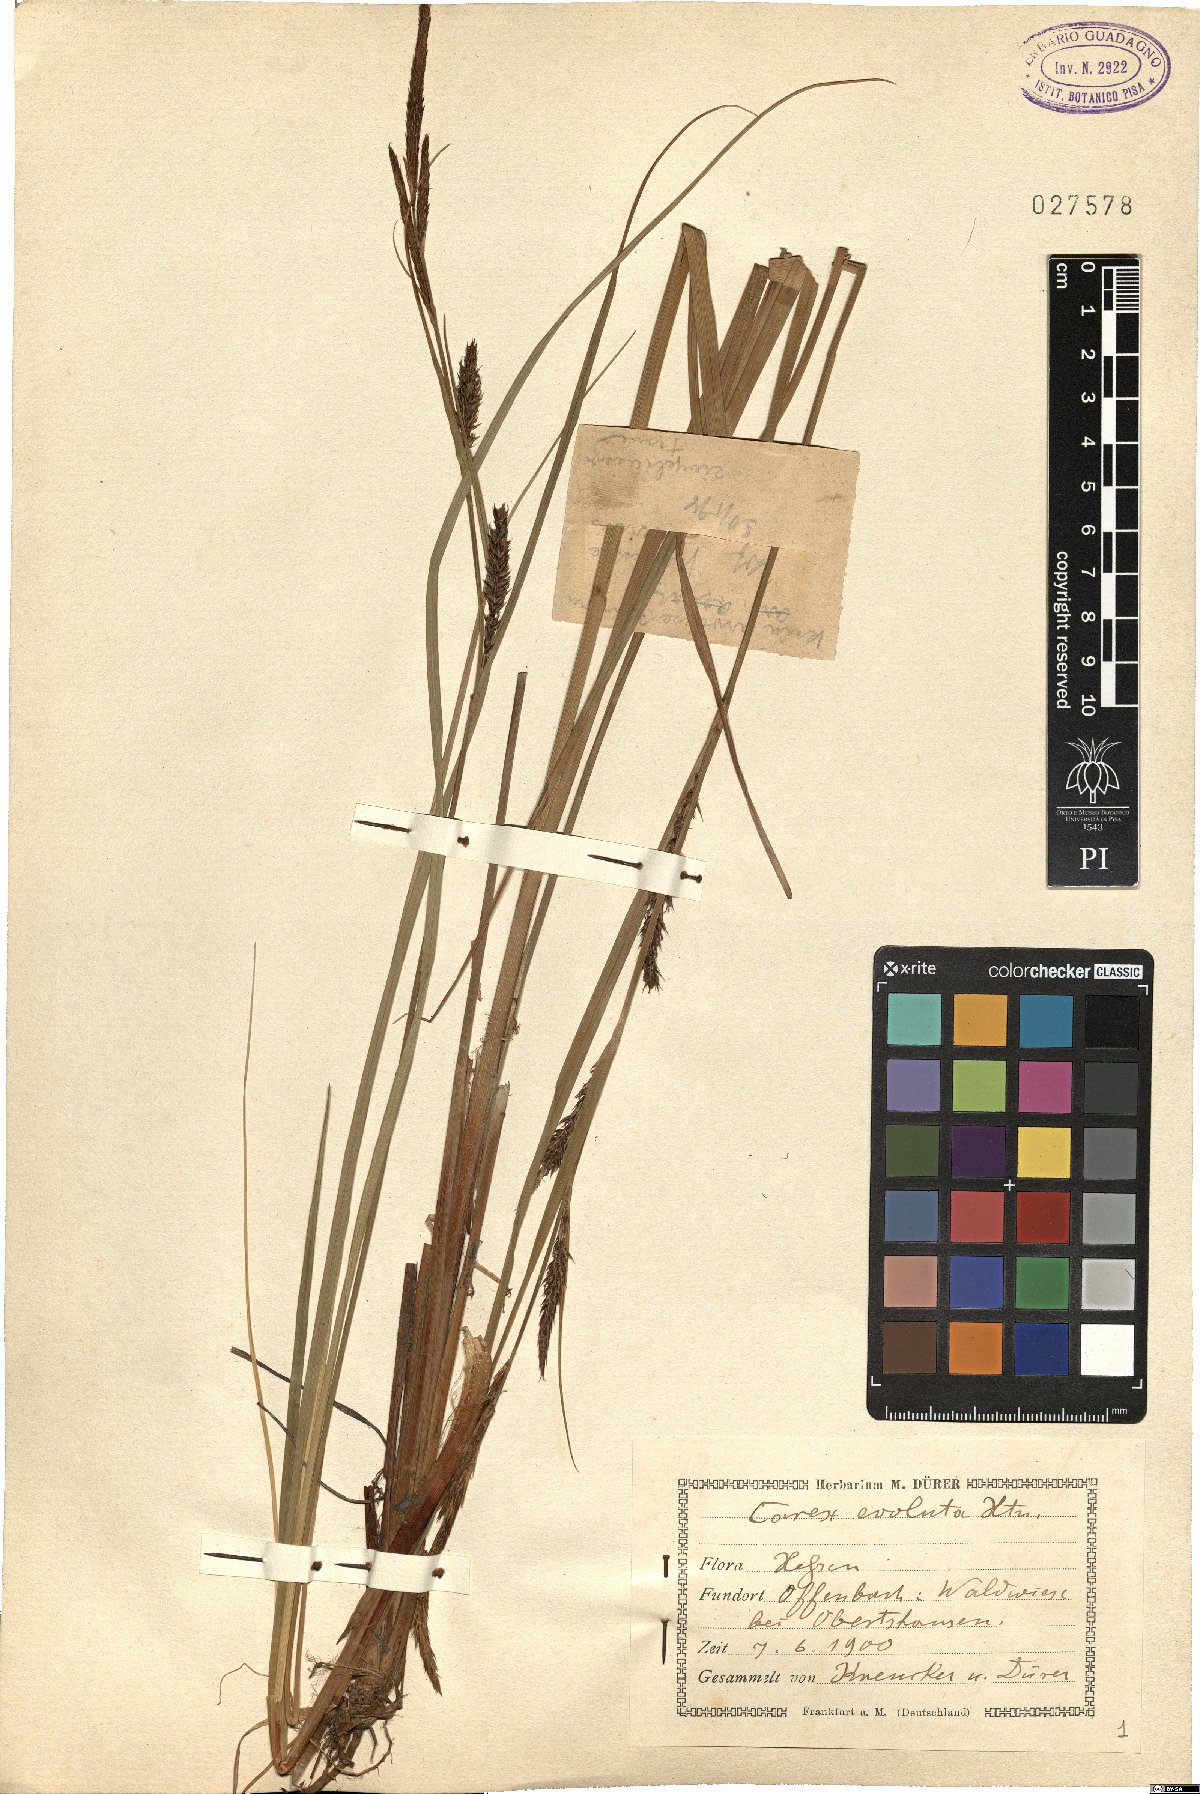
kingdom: Plantae
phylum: Tracheophyta
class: Liliopsida
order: Poales
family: Cyperaceae
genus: Carex
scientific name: Carex evoluta
